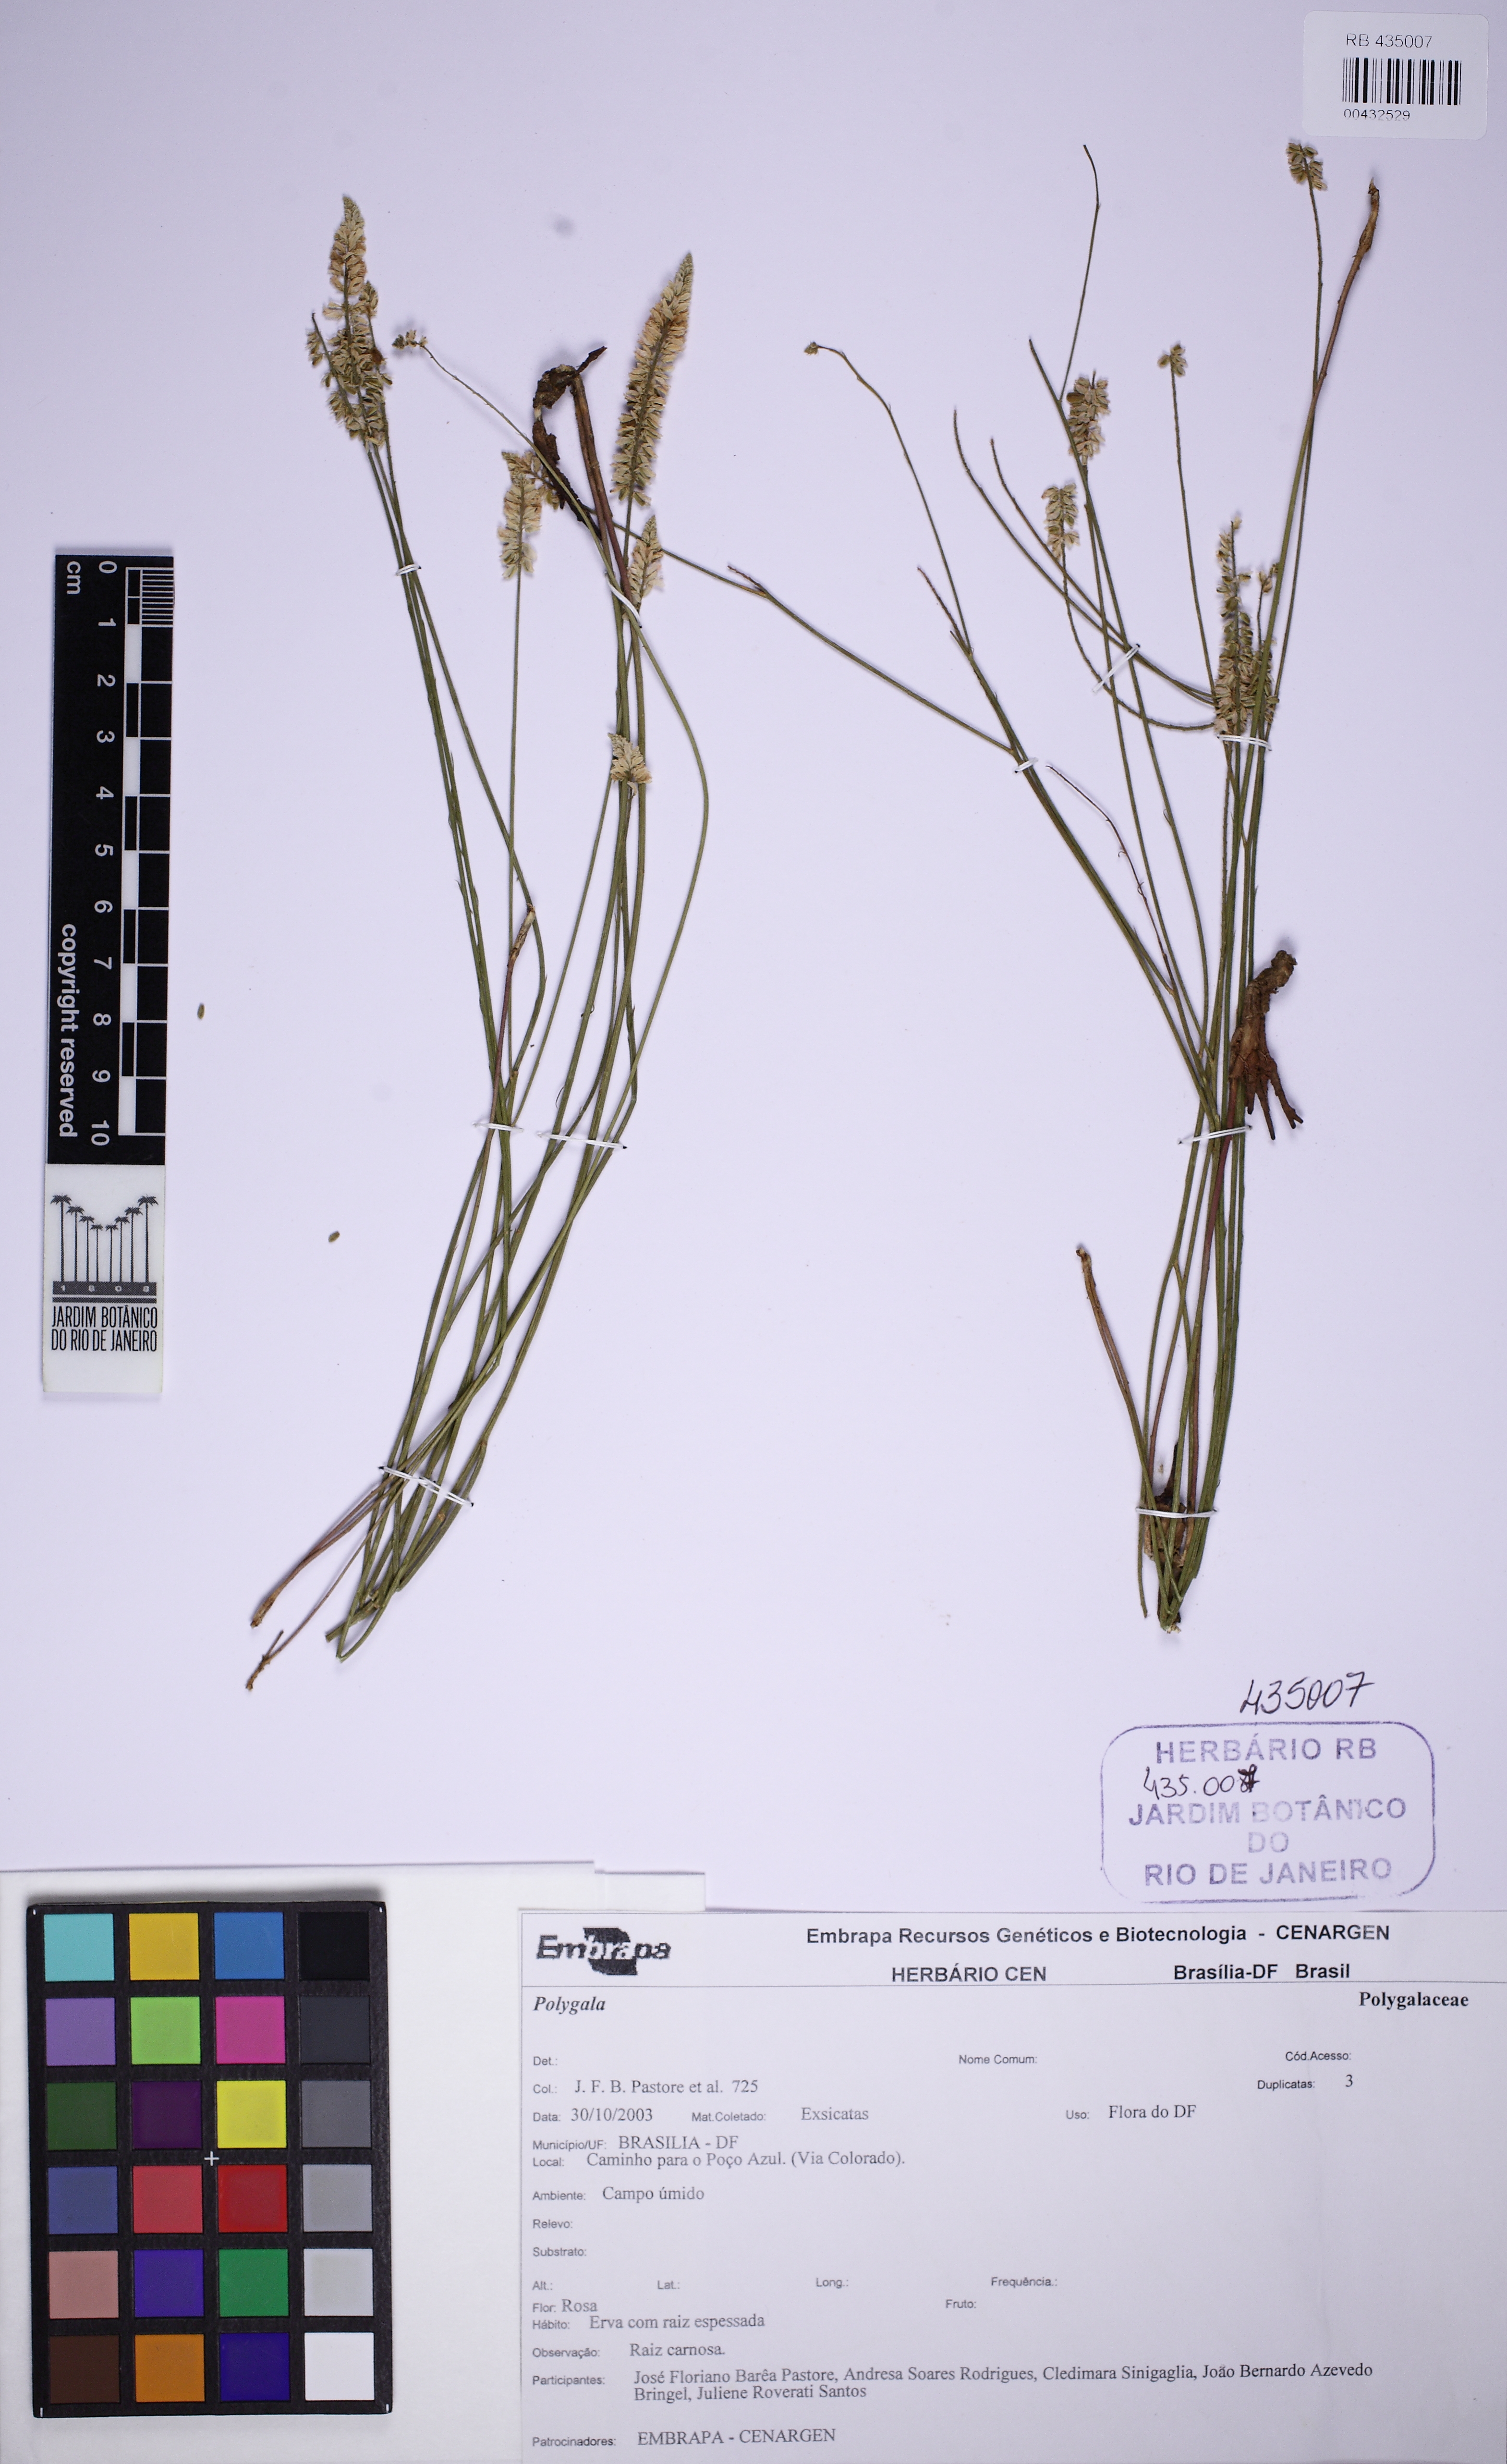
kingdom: Plantae
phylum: Tracheophyta
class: Magnoliopsida
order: Fabales
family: Polygalaceae
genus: Asemeia
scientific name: Asemeia
